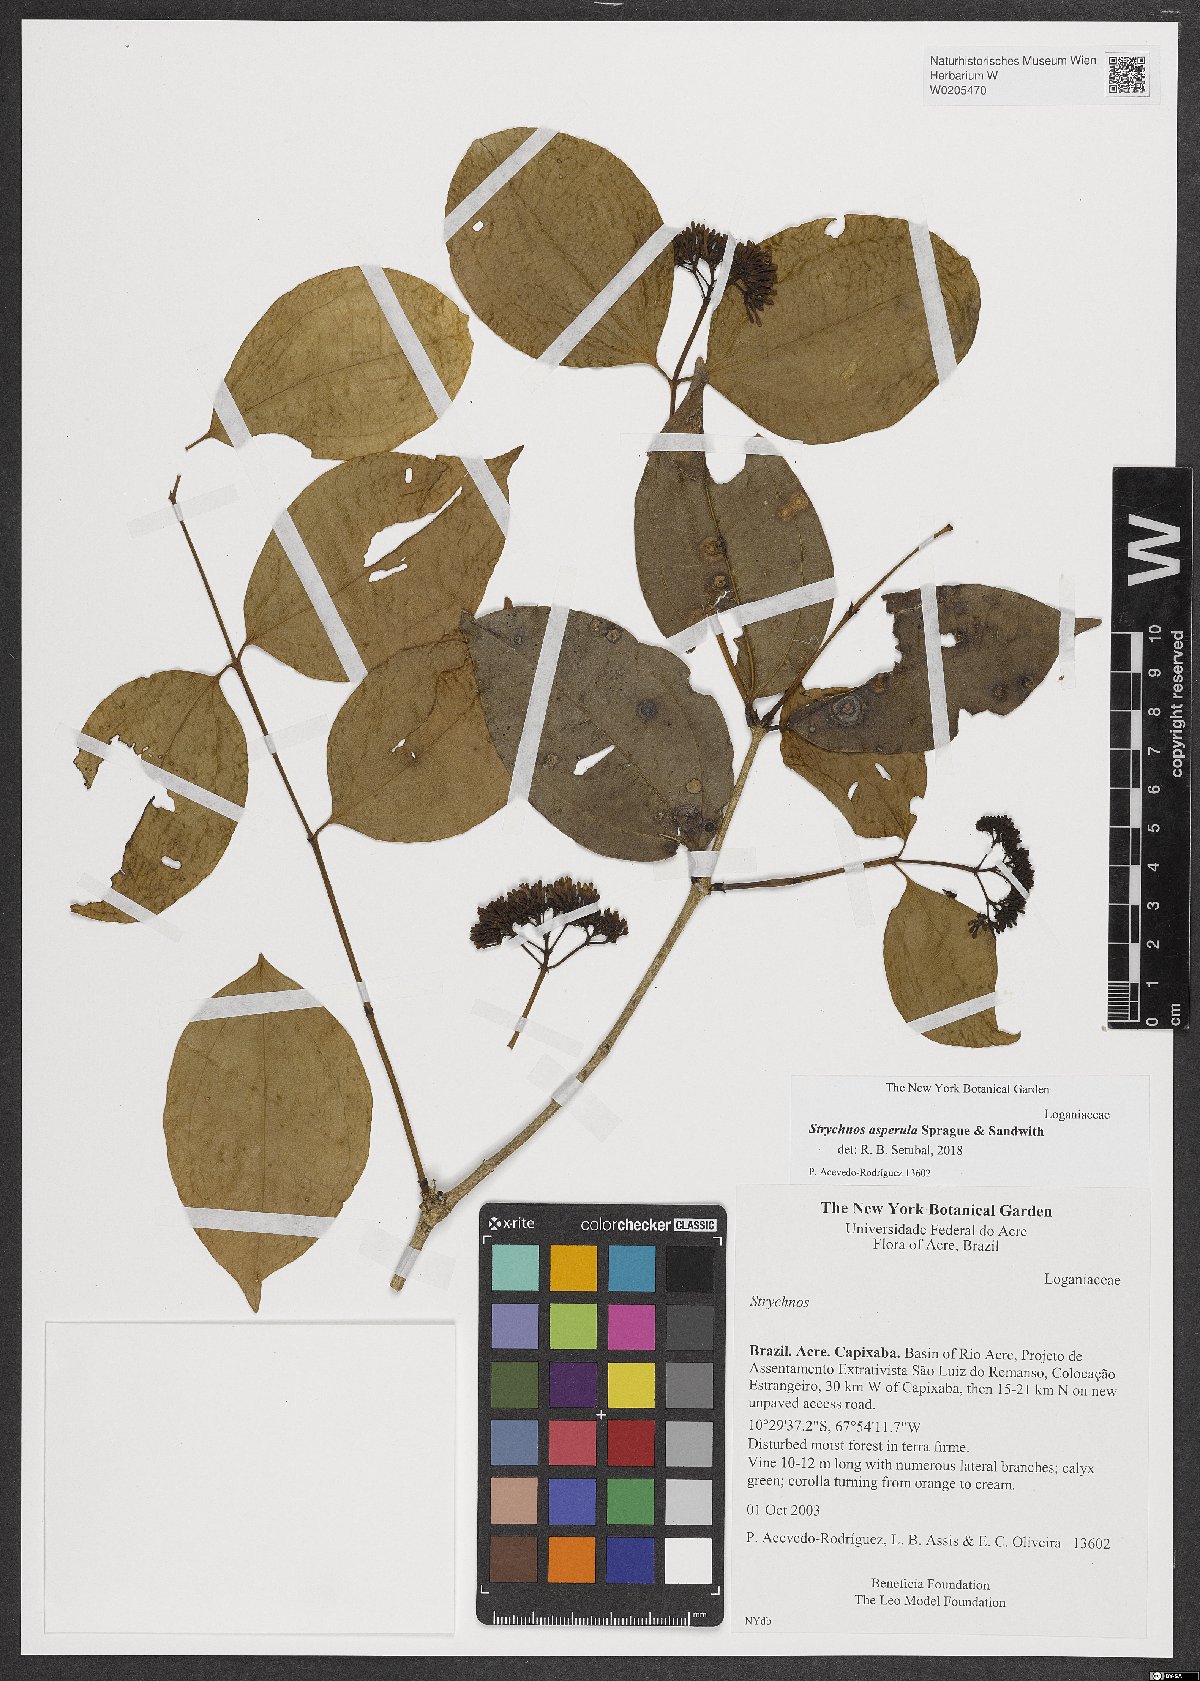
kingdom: Plantae
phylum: Tracheophyta
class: Magnoliopsida
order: Gentianales
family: Loganiaceae
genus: Strychnos
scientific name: Strychnos asperula
